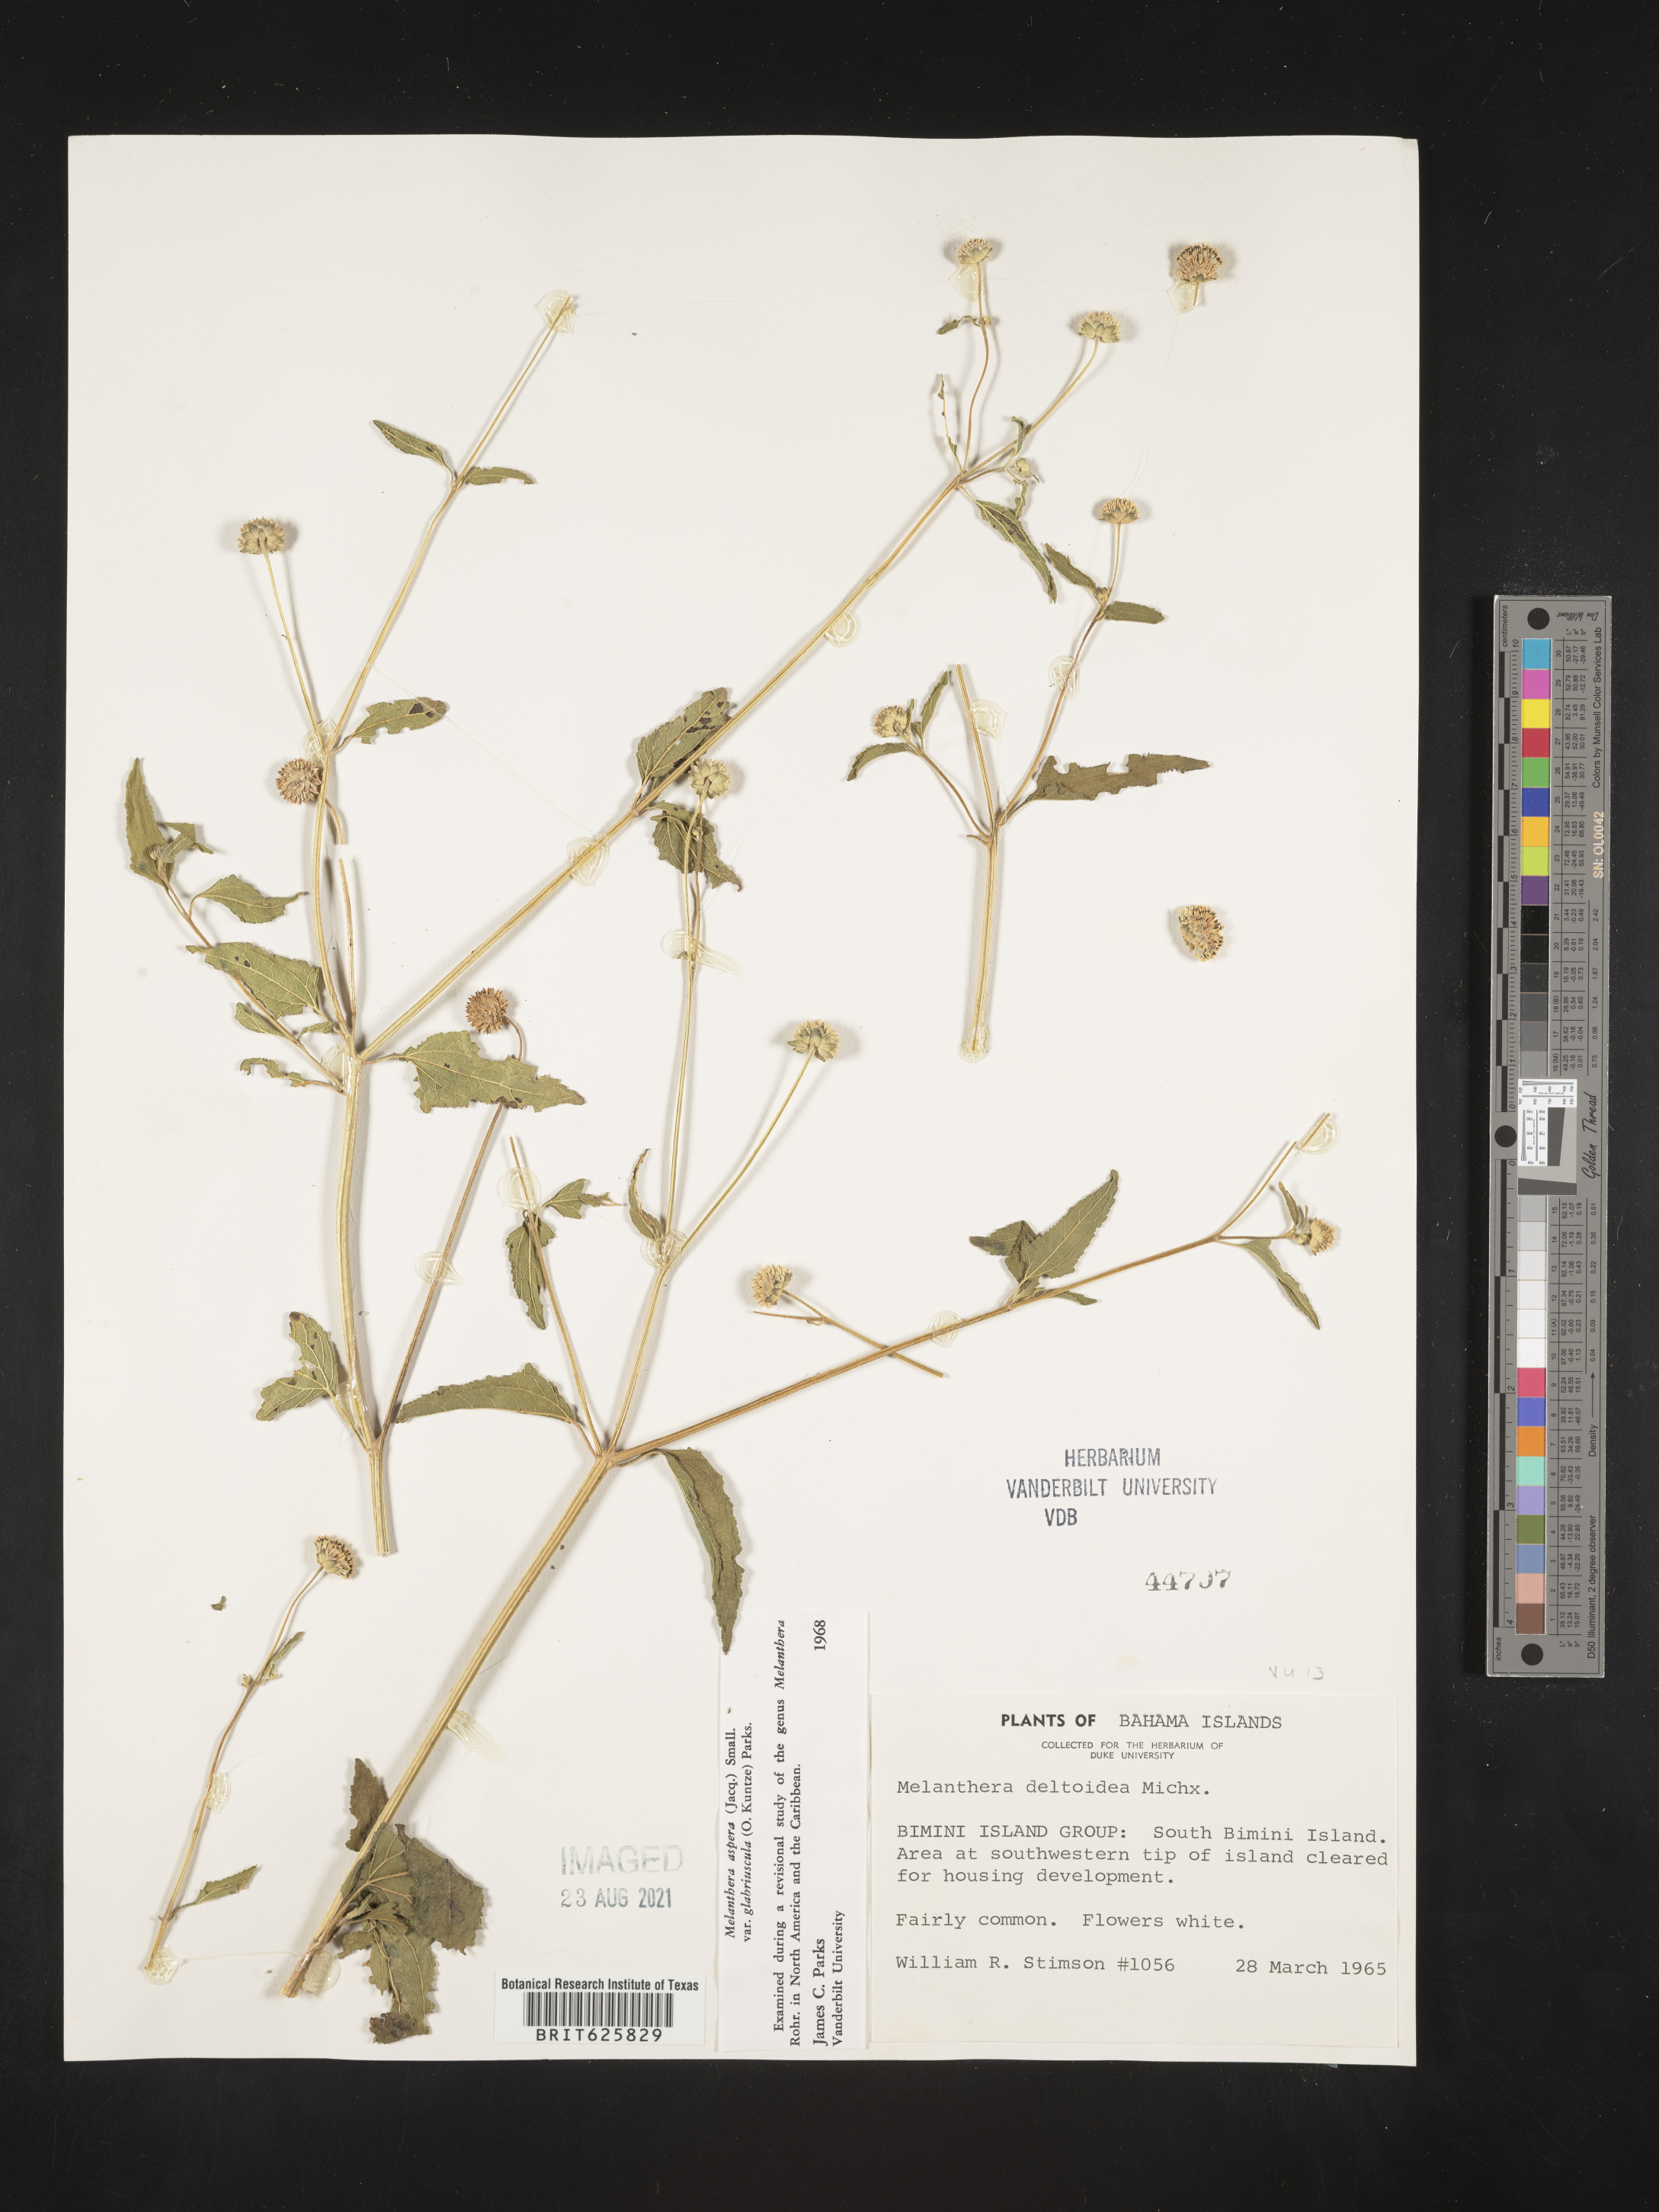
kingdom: Plantae
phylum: Tracheophyta
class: Magnoliopsida
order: Asterales
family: Asteraceae
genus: Melanthera
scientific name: Melanthera nivea
